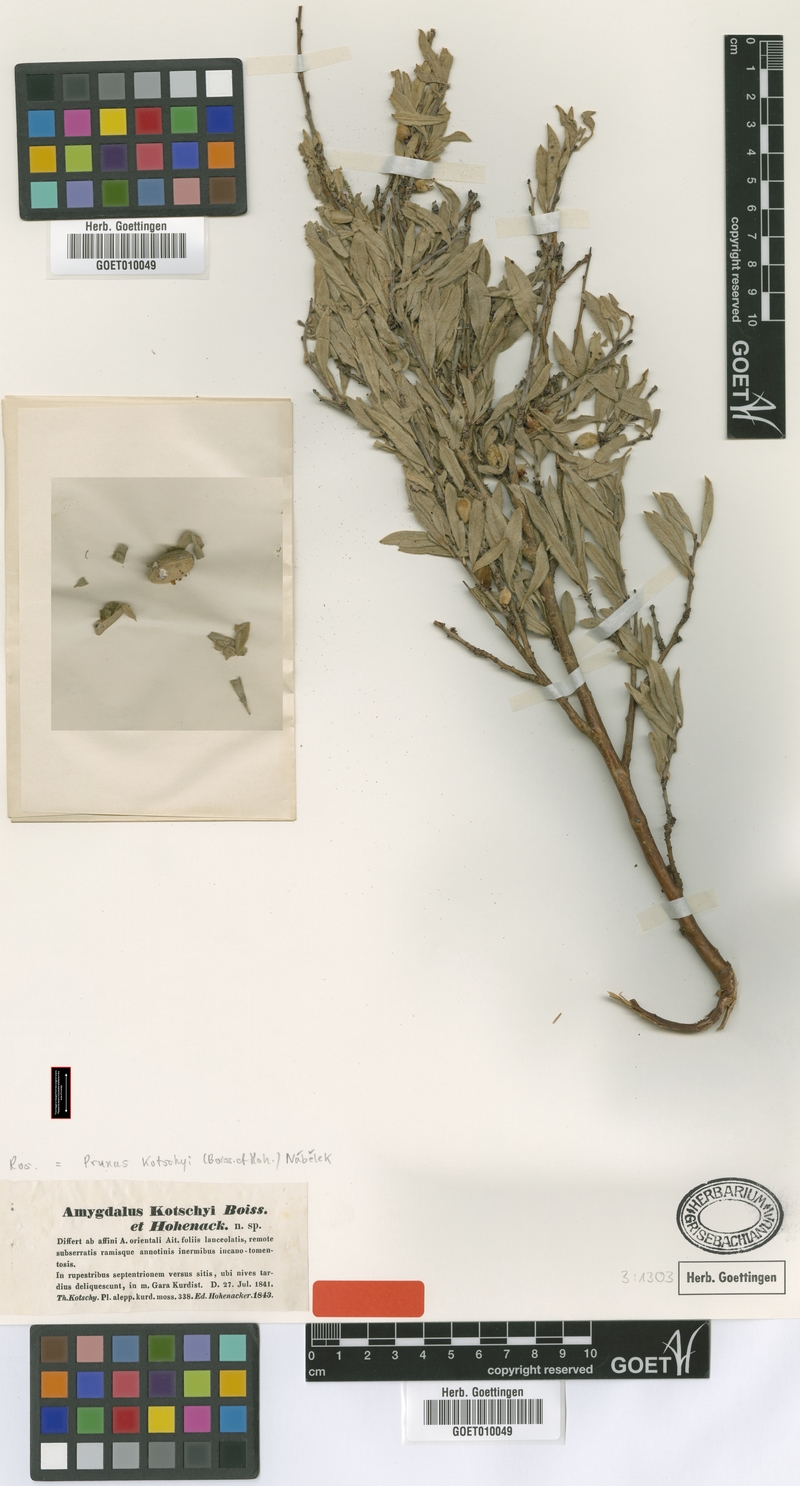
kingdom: Plantae
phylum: Tracheophyta
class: Magnoliopsida
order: Rosales
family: Rosaceae
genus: Prunus
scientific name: Prunus
